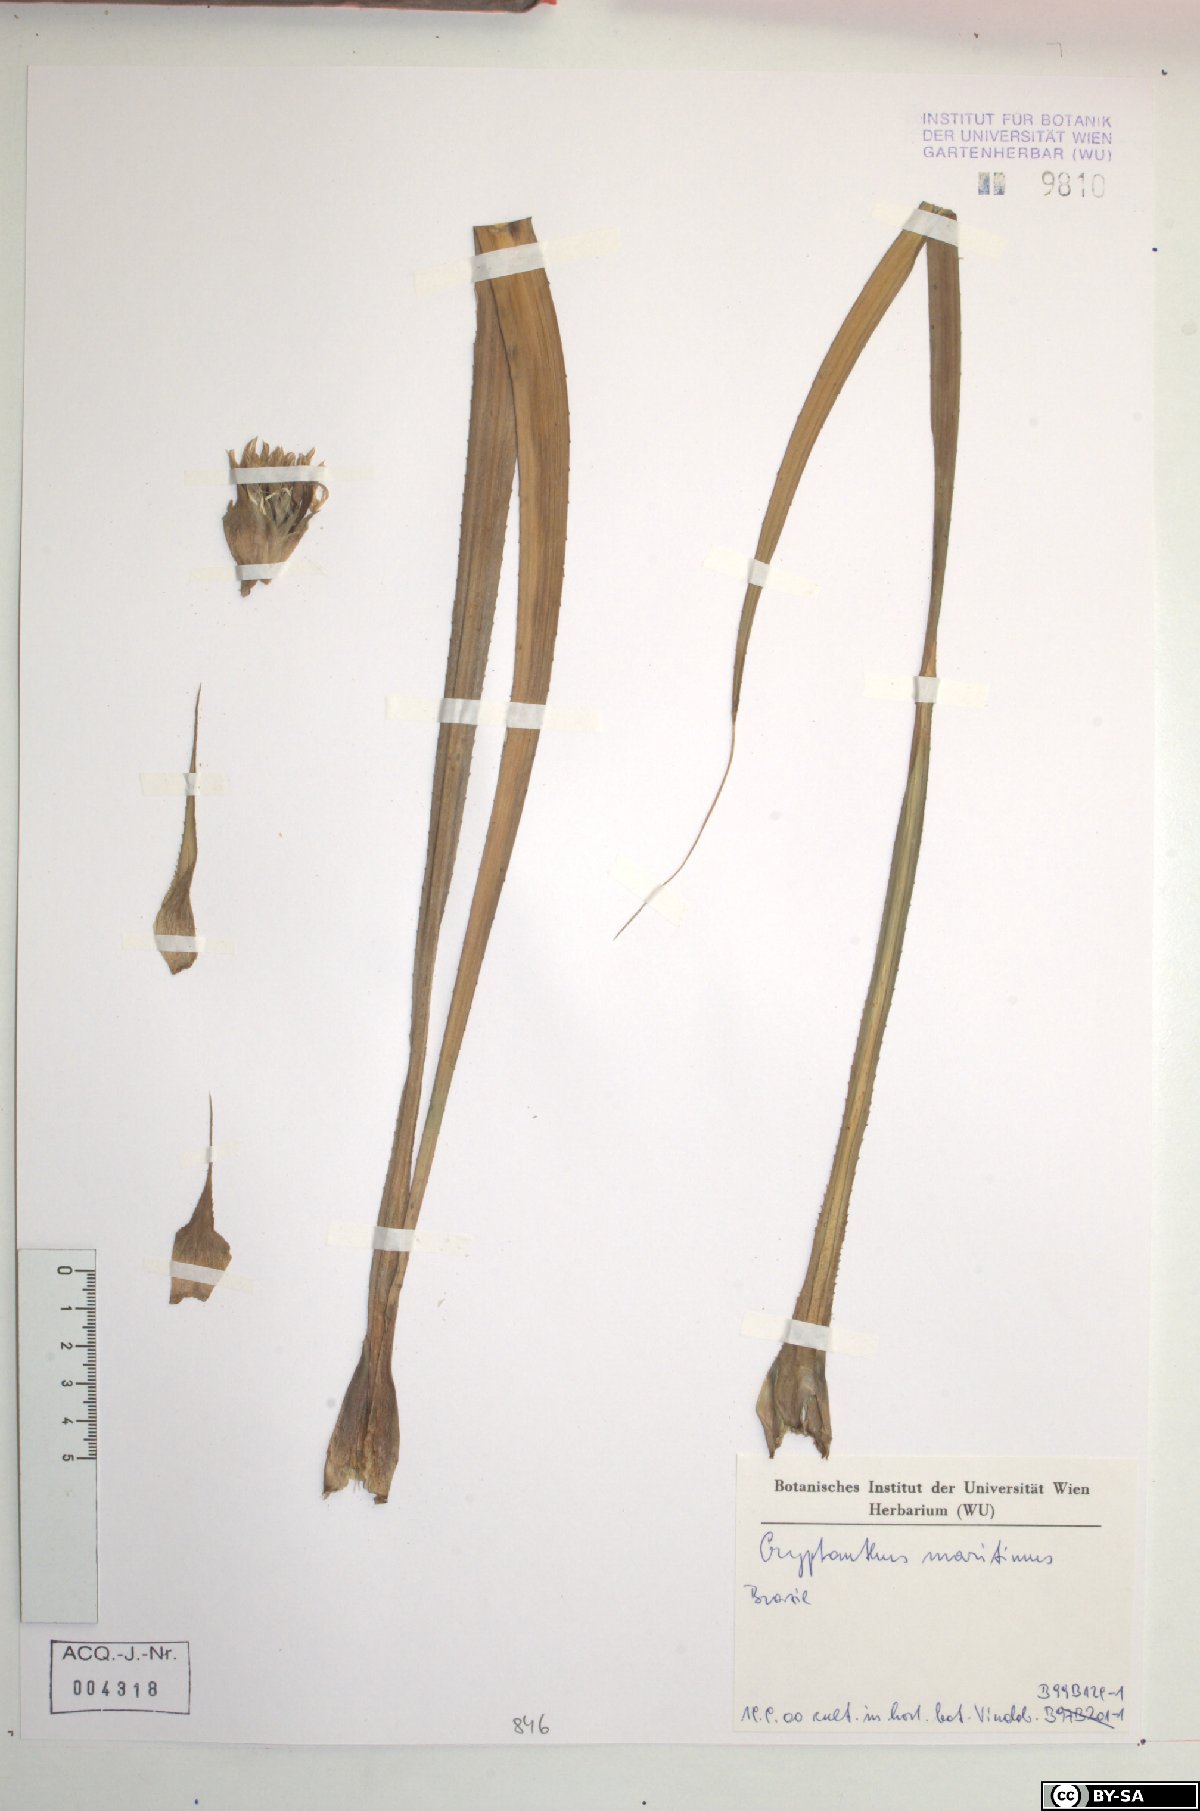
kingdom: Plantae
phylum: Tracheophyta
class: Liliopsida
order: Poales
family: Bromeliaceae
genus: Cryptanthus
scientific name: Cryptanthus maritimus
